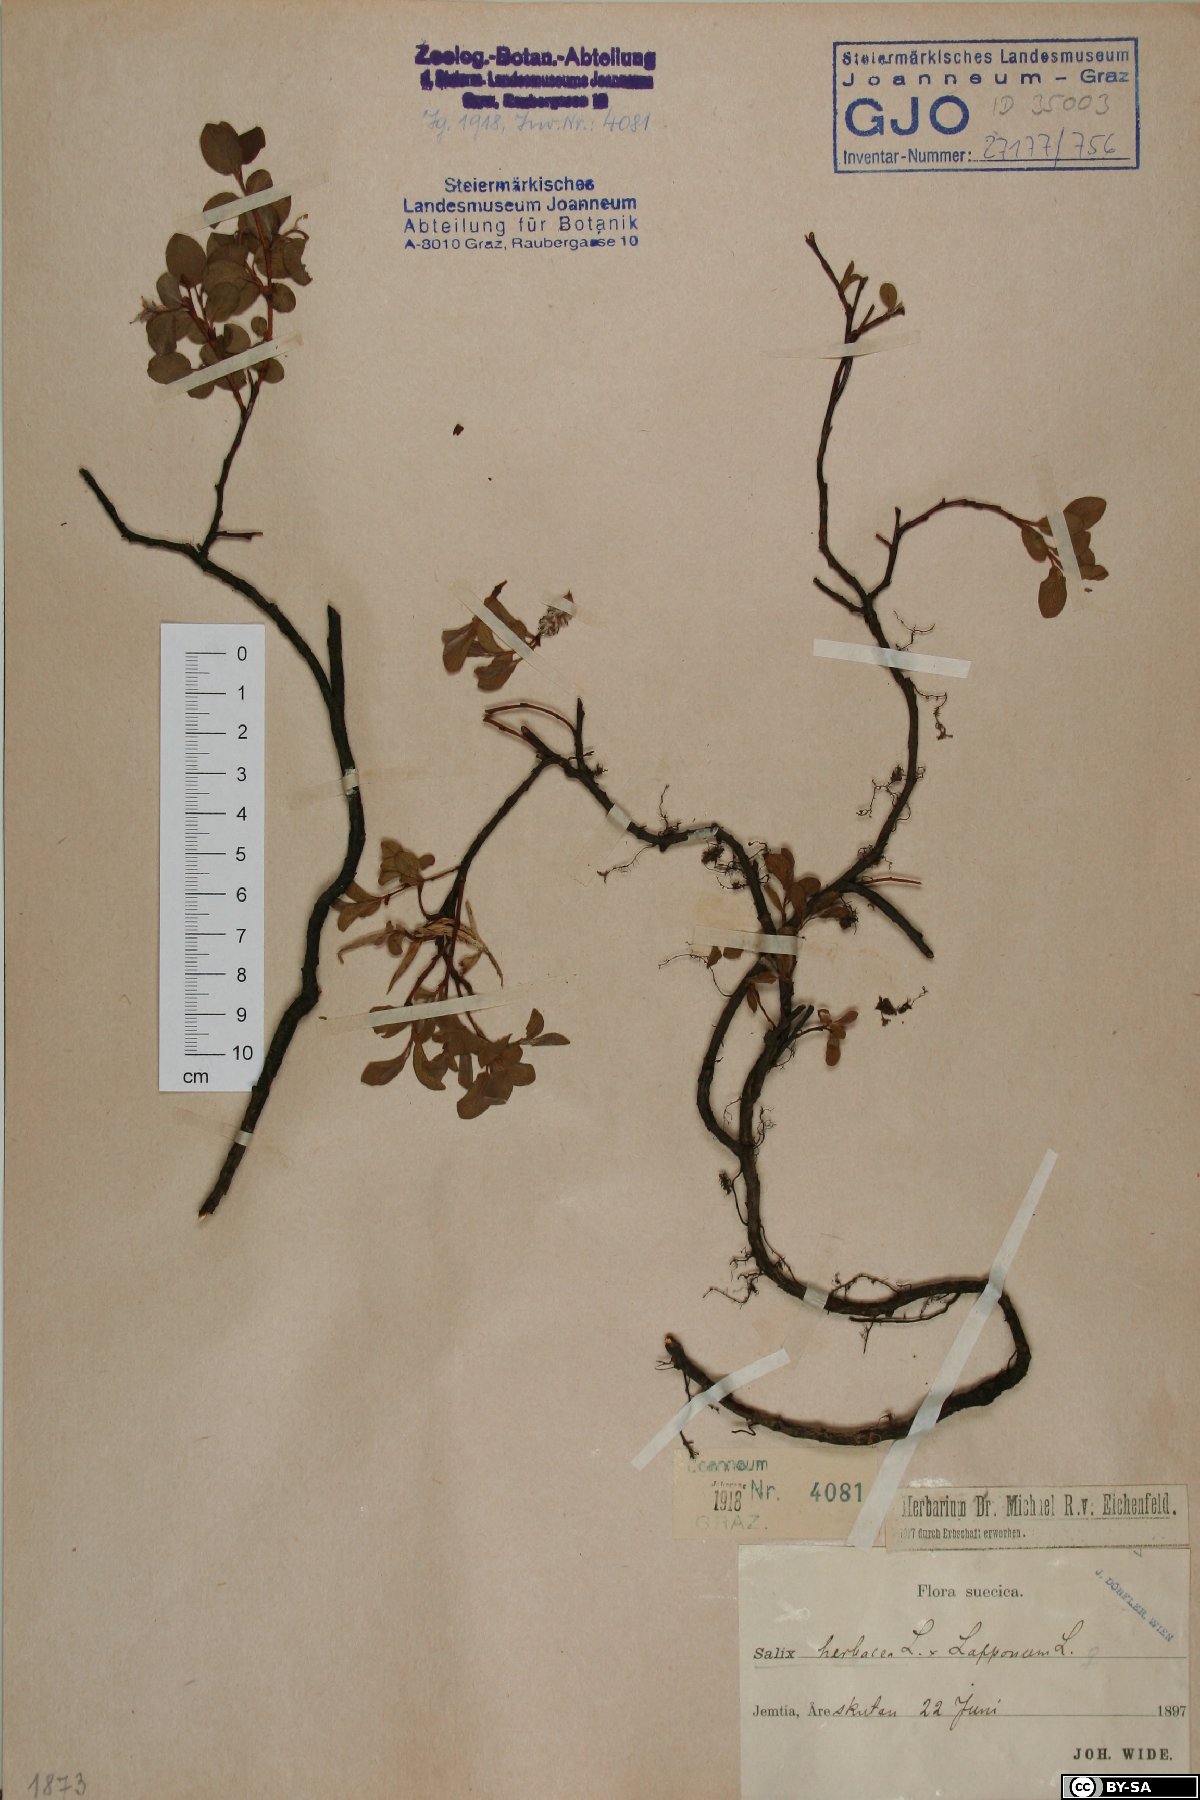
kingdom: Plantae
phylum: Tracheophyta
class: Magnoliopsida
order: Malpighiales
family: Salicaceae
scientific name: Salicaceae
